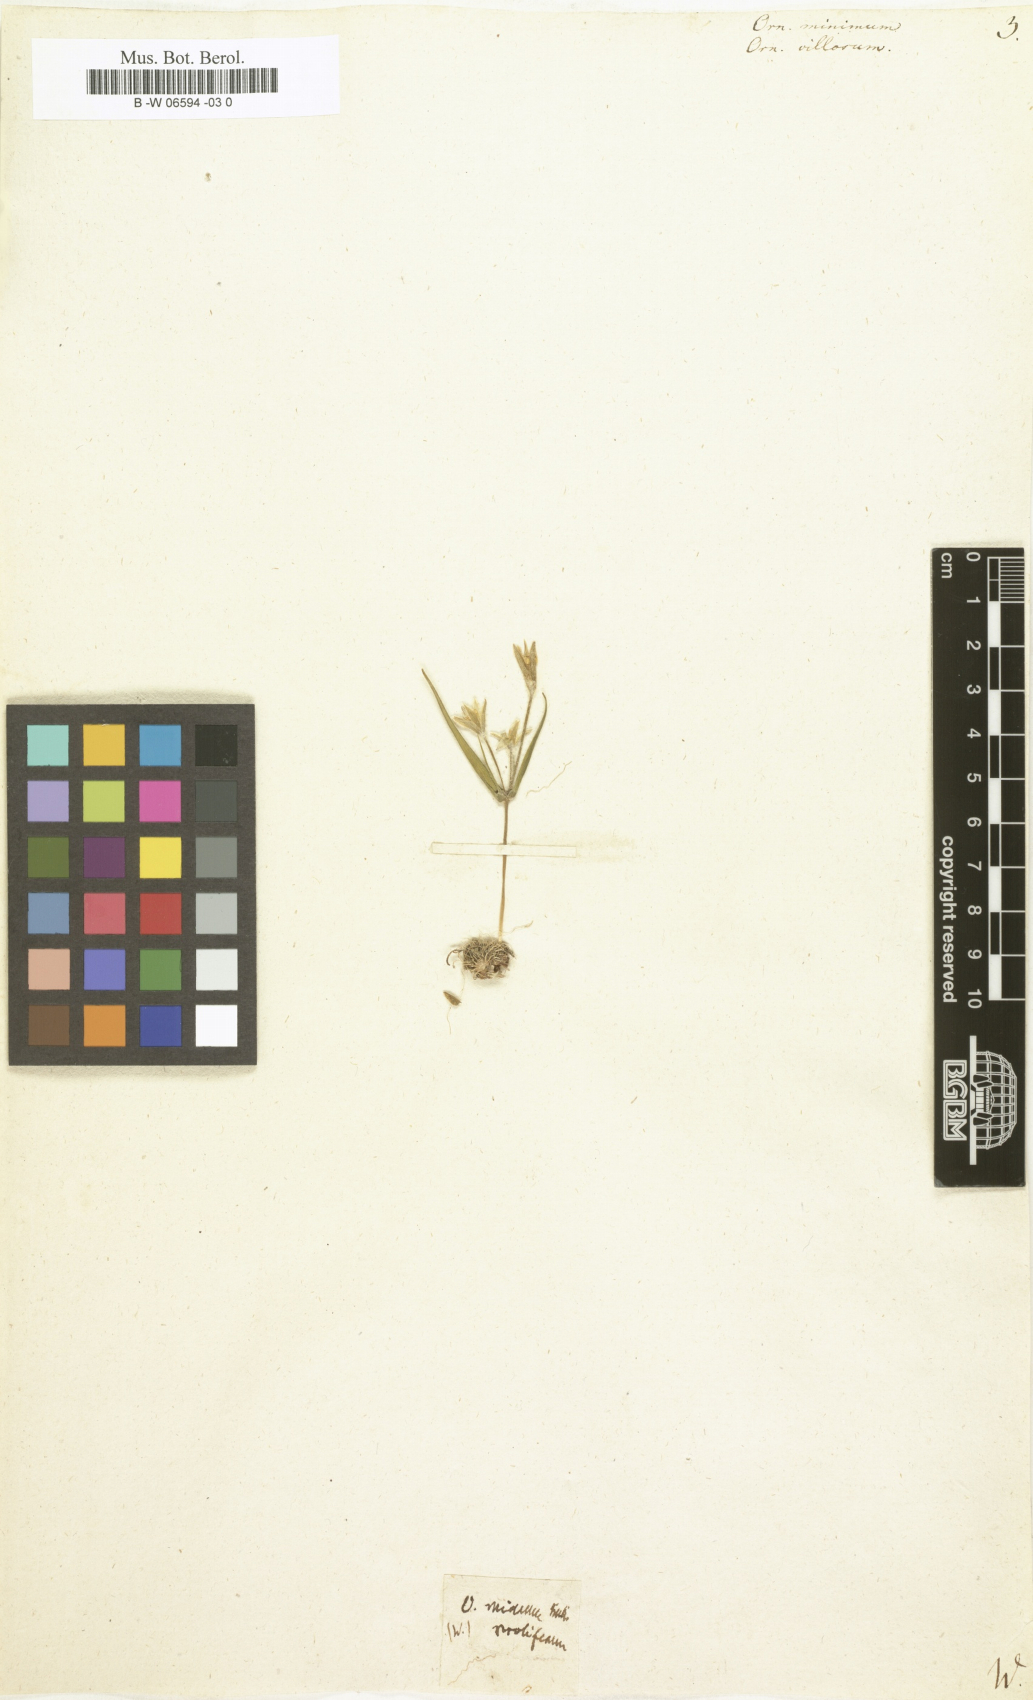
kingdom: Plantae
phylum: Tracheophyta
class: Liliopsida
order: Liliales
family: Liliaceae
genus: Gagea
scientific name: Gagea minima
